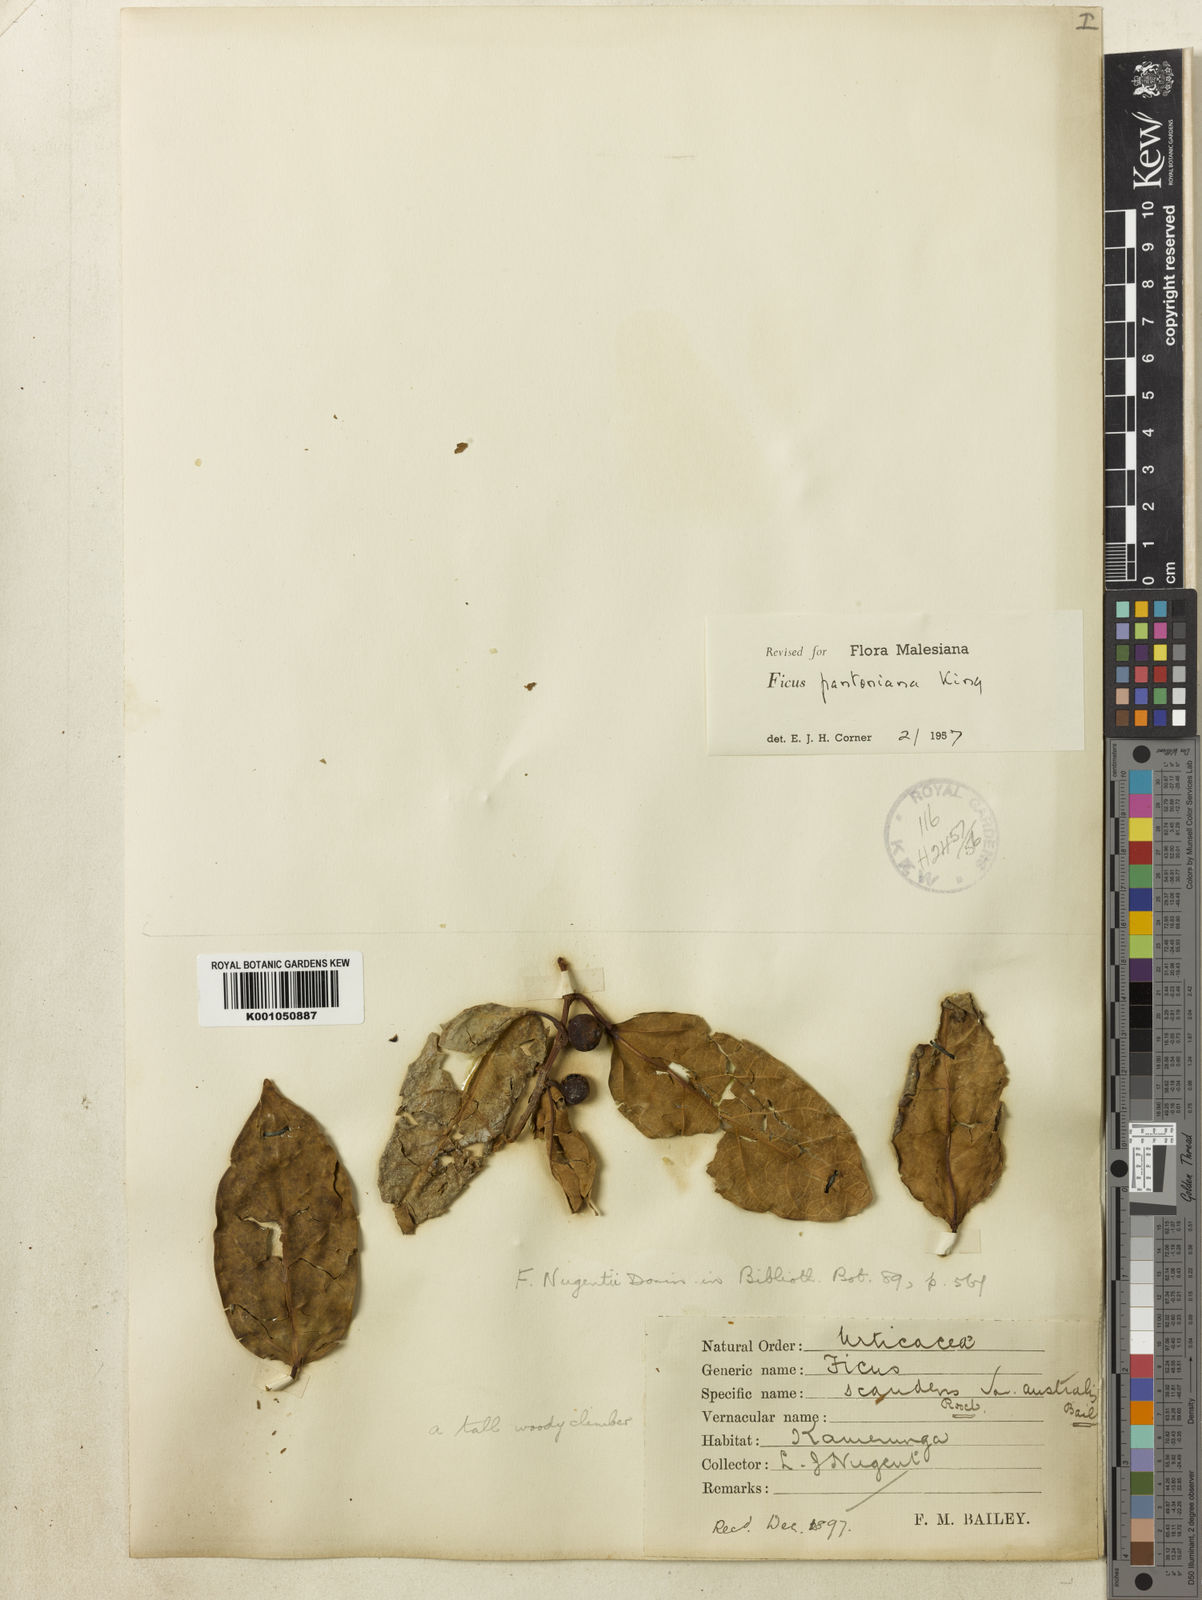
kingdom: Plantae
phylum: Tracheophyta
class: Magnoliopsida
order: Rosales
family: Moraceae
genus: Ficus
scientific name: Ficus pantoniana
